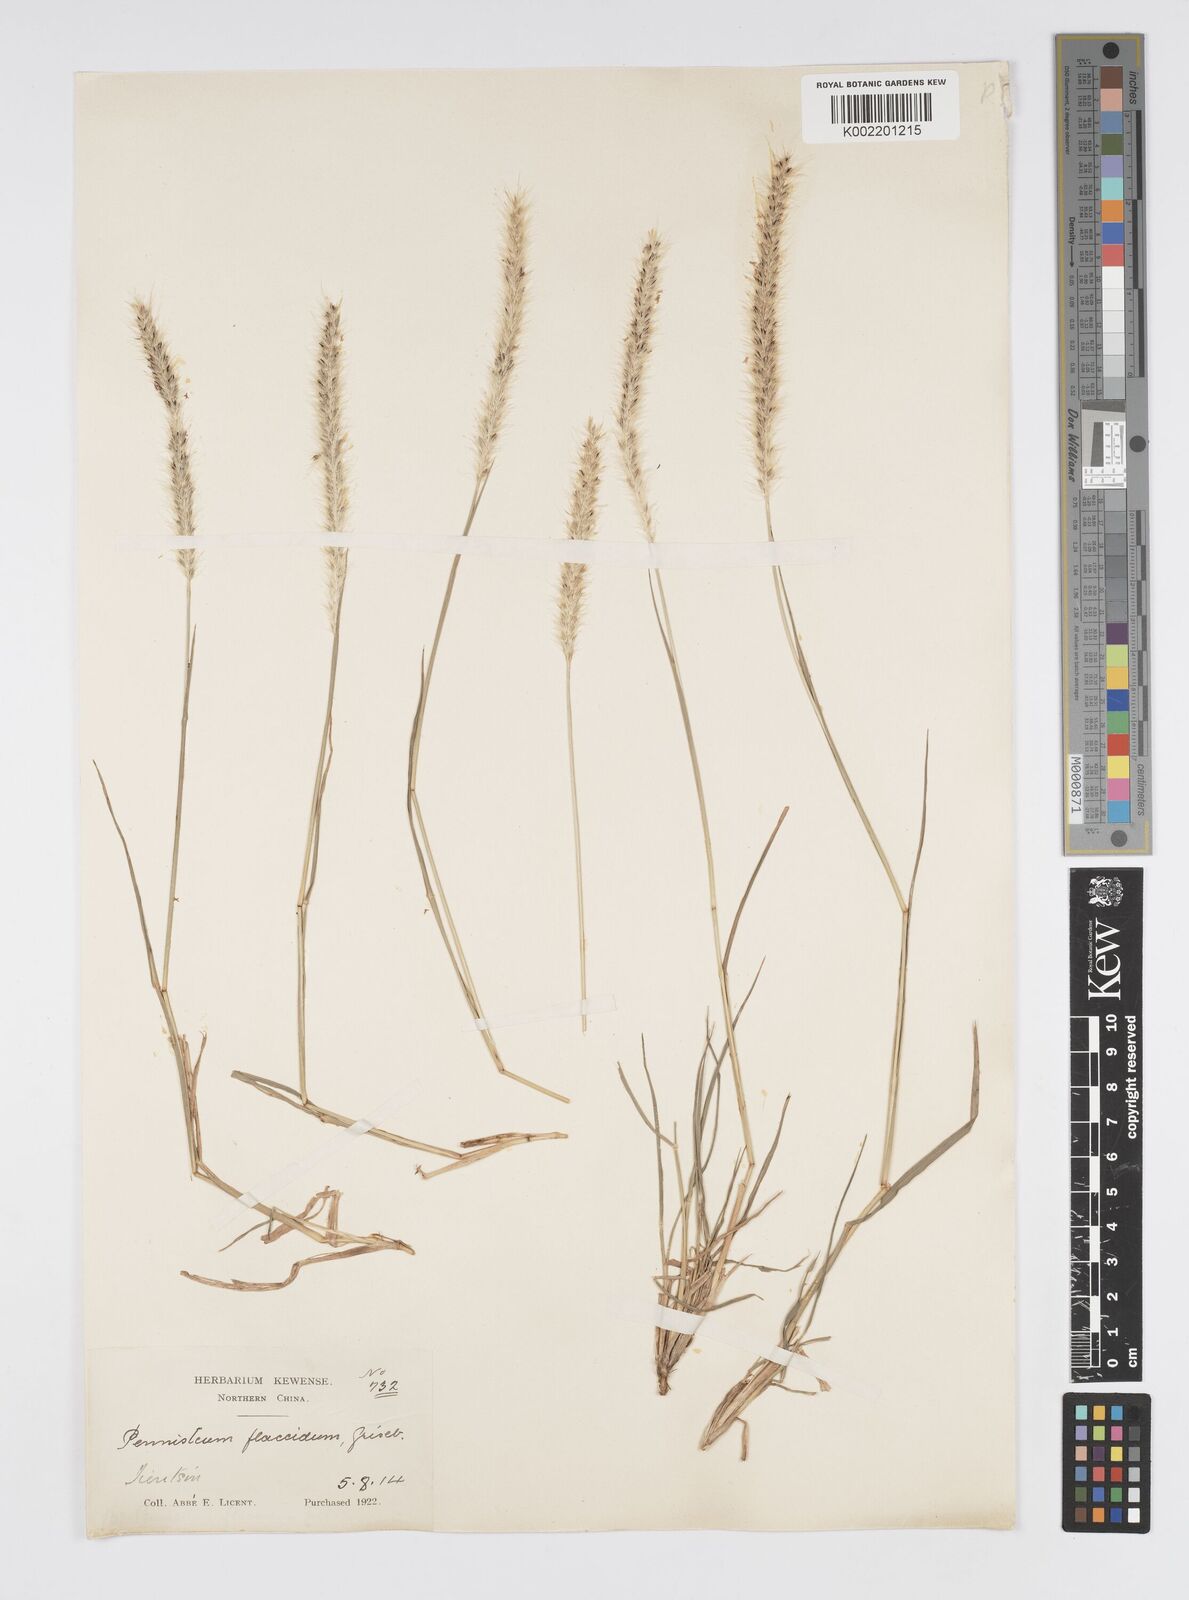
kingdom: Plantae
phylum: Tracheophyta
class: Liliopsida
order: Poales
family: Poaceae
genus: Cenchrus
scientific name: Cenchrus flaccidus
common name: Flaccid grass
